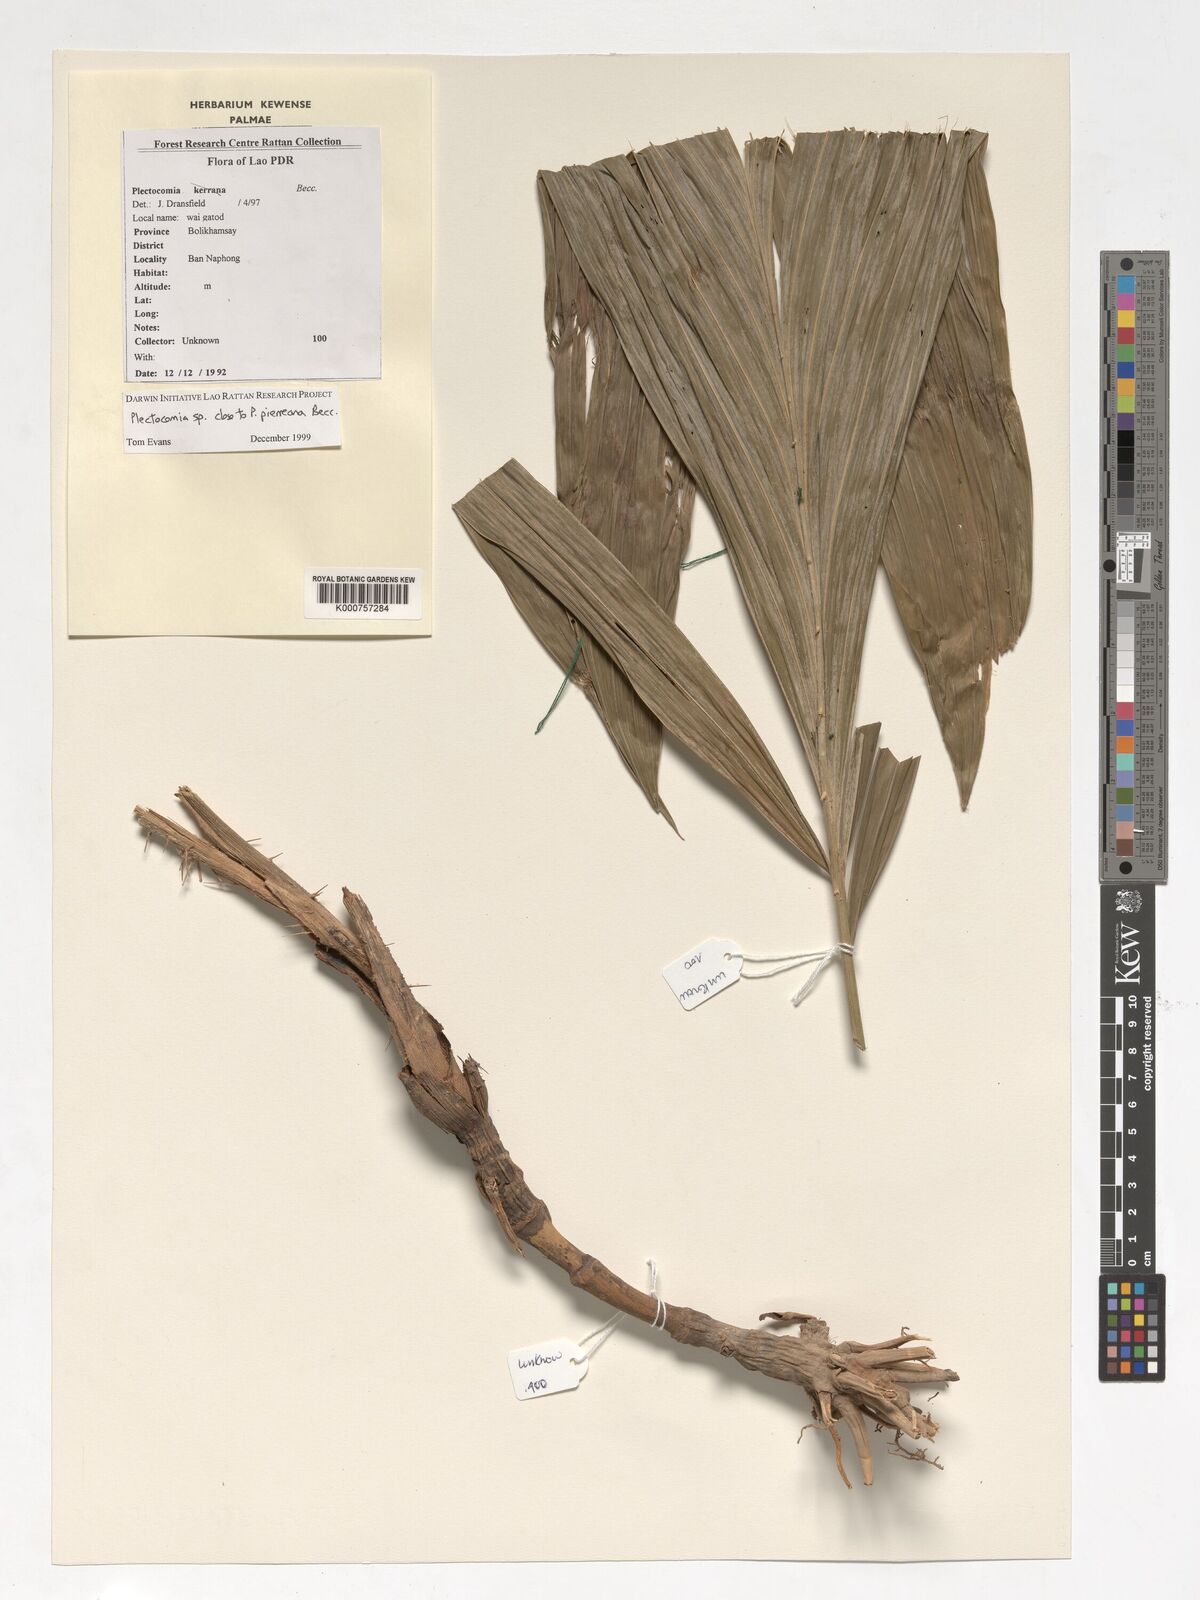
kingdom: Plantae
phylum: Tracheophyta
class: Liliopsida
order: Arecales
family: Arecaceae
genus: Plectocomia
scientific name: Plectocomia pierreana
